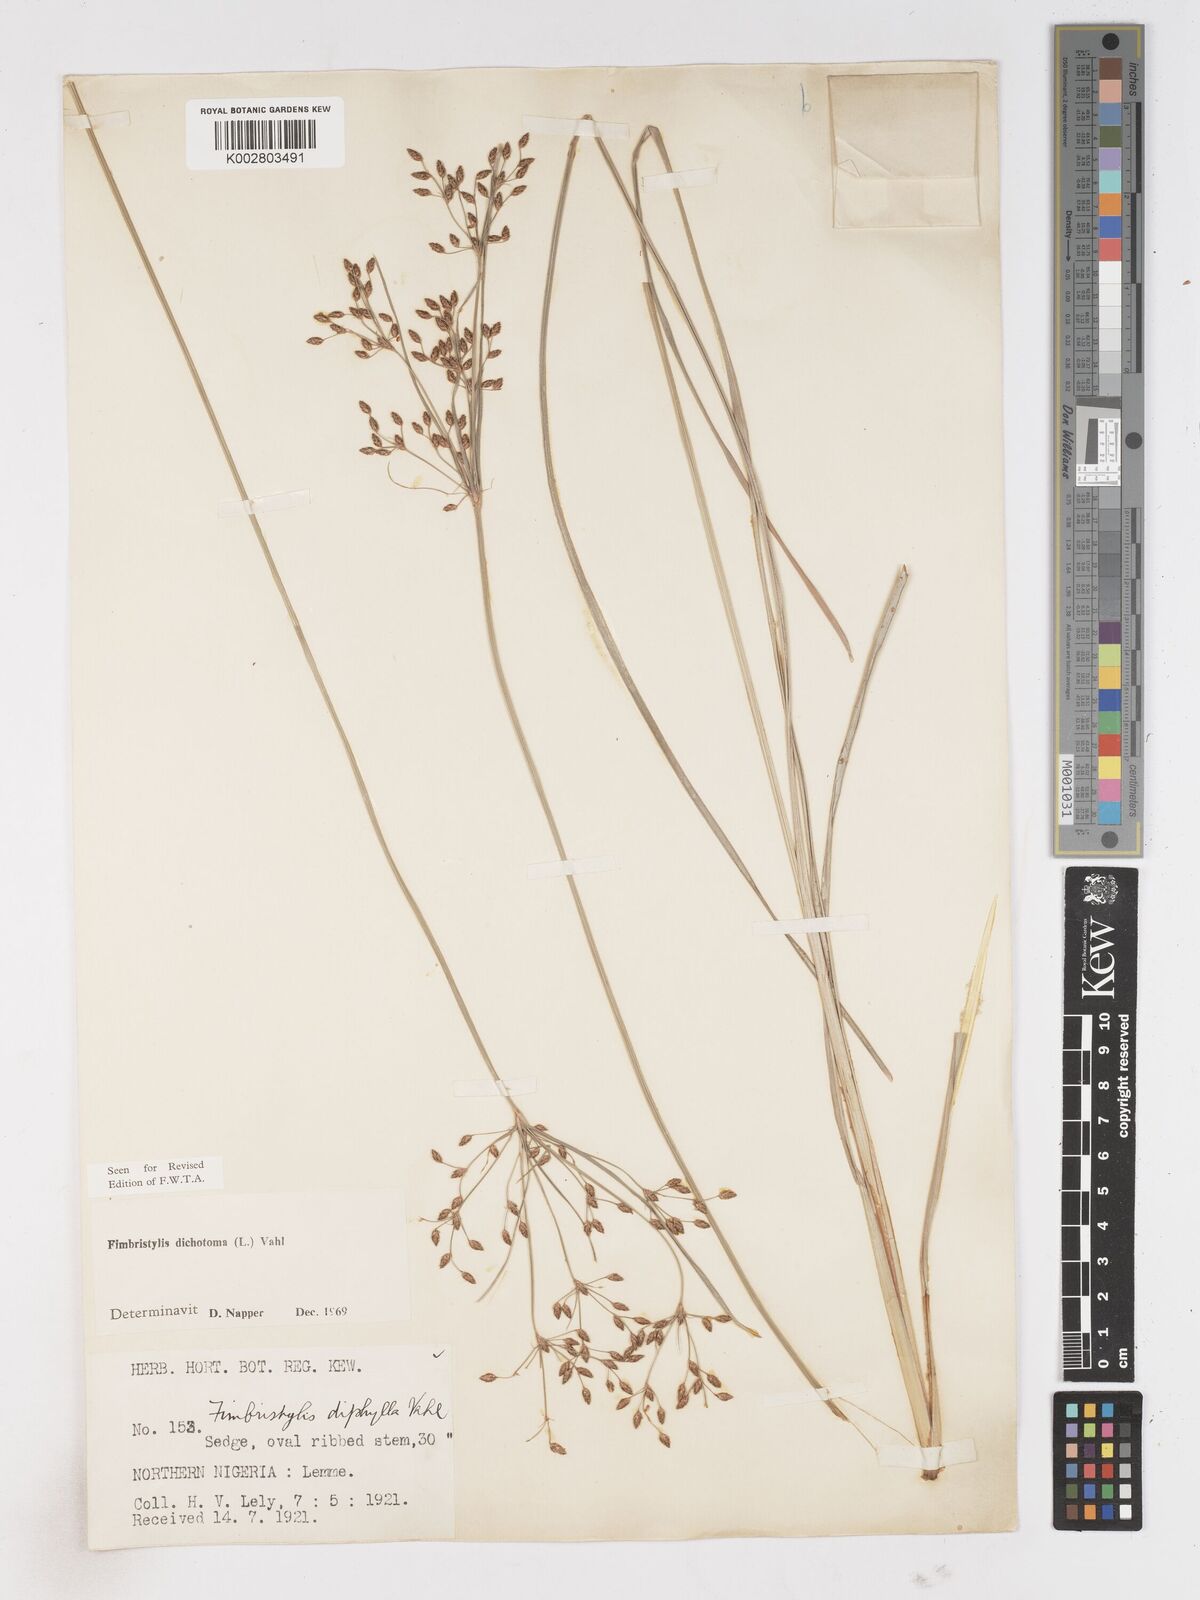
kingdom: Plantae
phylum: Tracheophyta
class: Liliopsida
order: Poales
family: Cyperaceae
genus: Fimbristylis
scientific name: Fimbristylis dichotoma
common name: Forked fimbry
